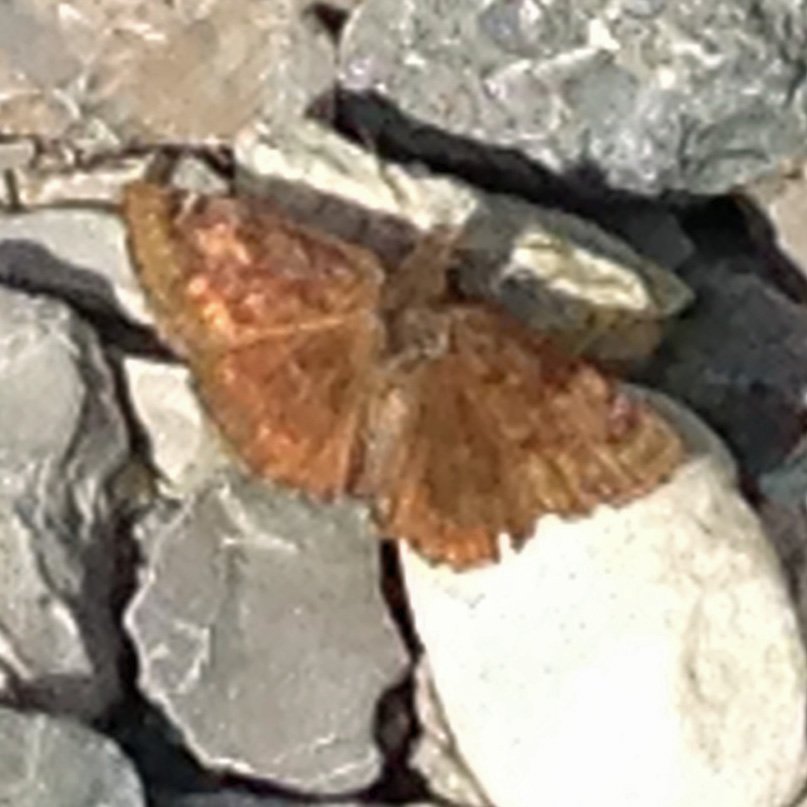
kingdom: Animalia
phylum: Arthropoda
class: Insecta
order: Lepidoptera
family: Hesperiidae
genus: Gesta
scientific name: Gesta
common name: Wild Indigo Duskywing
